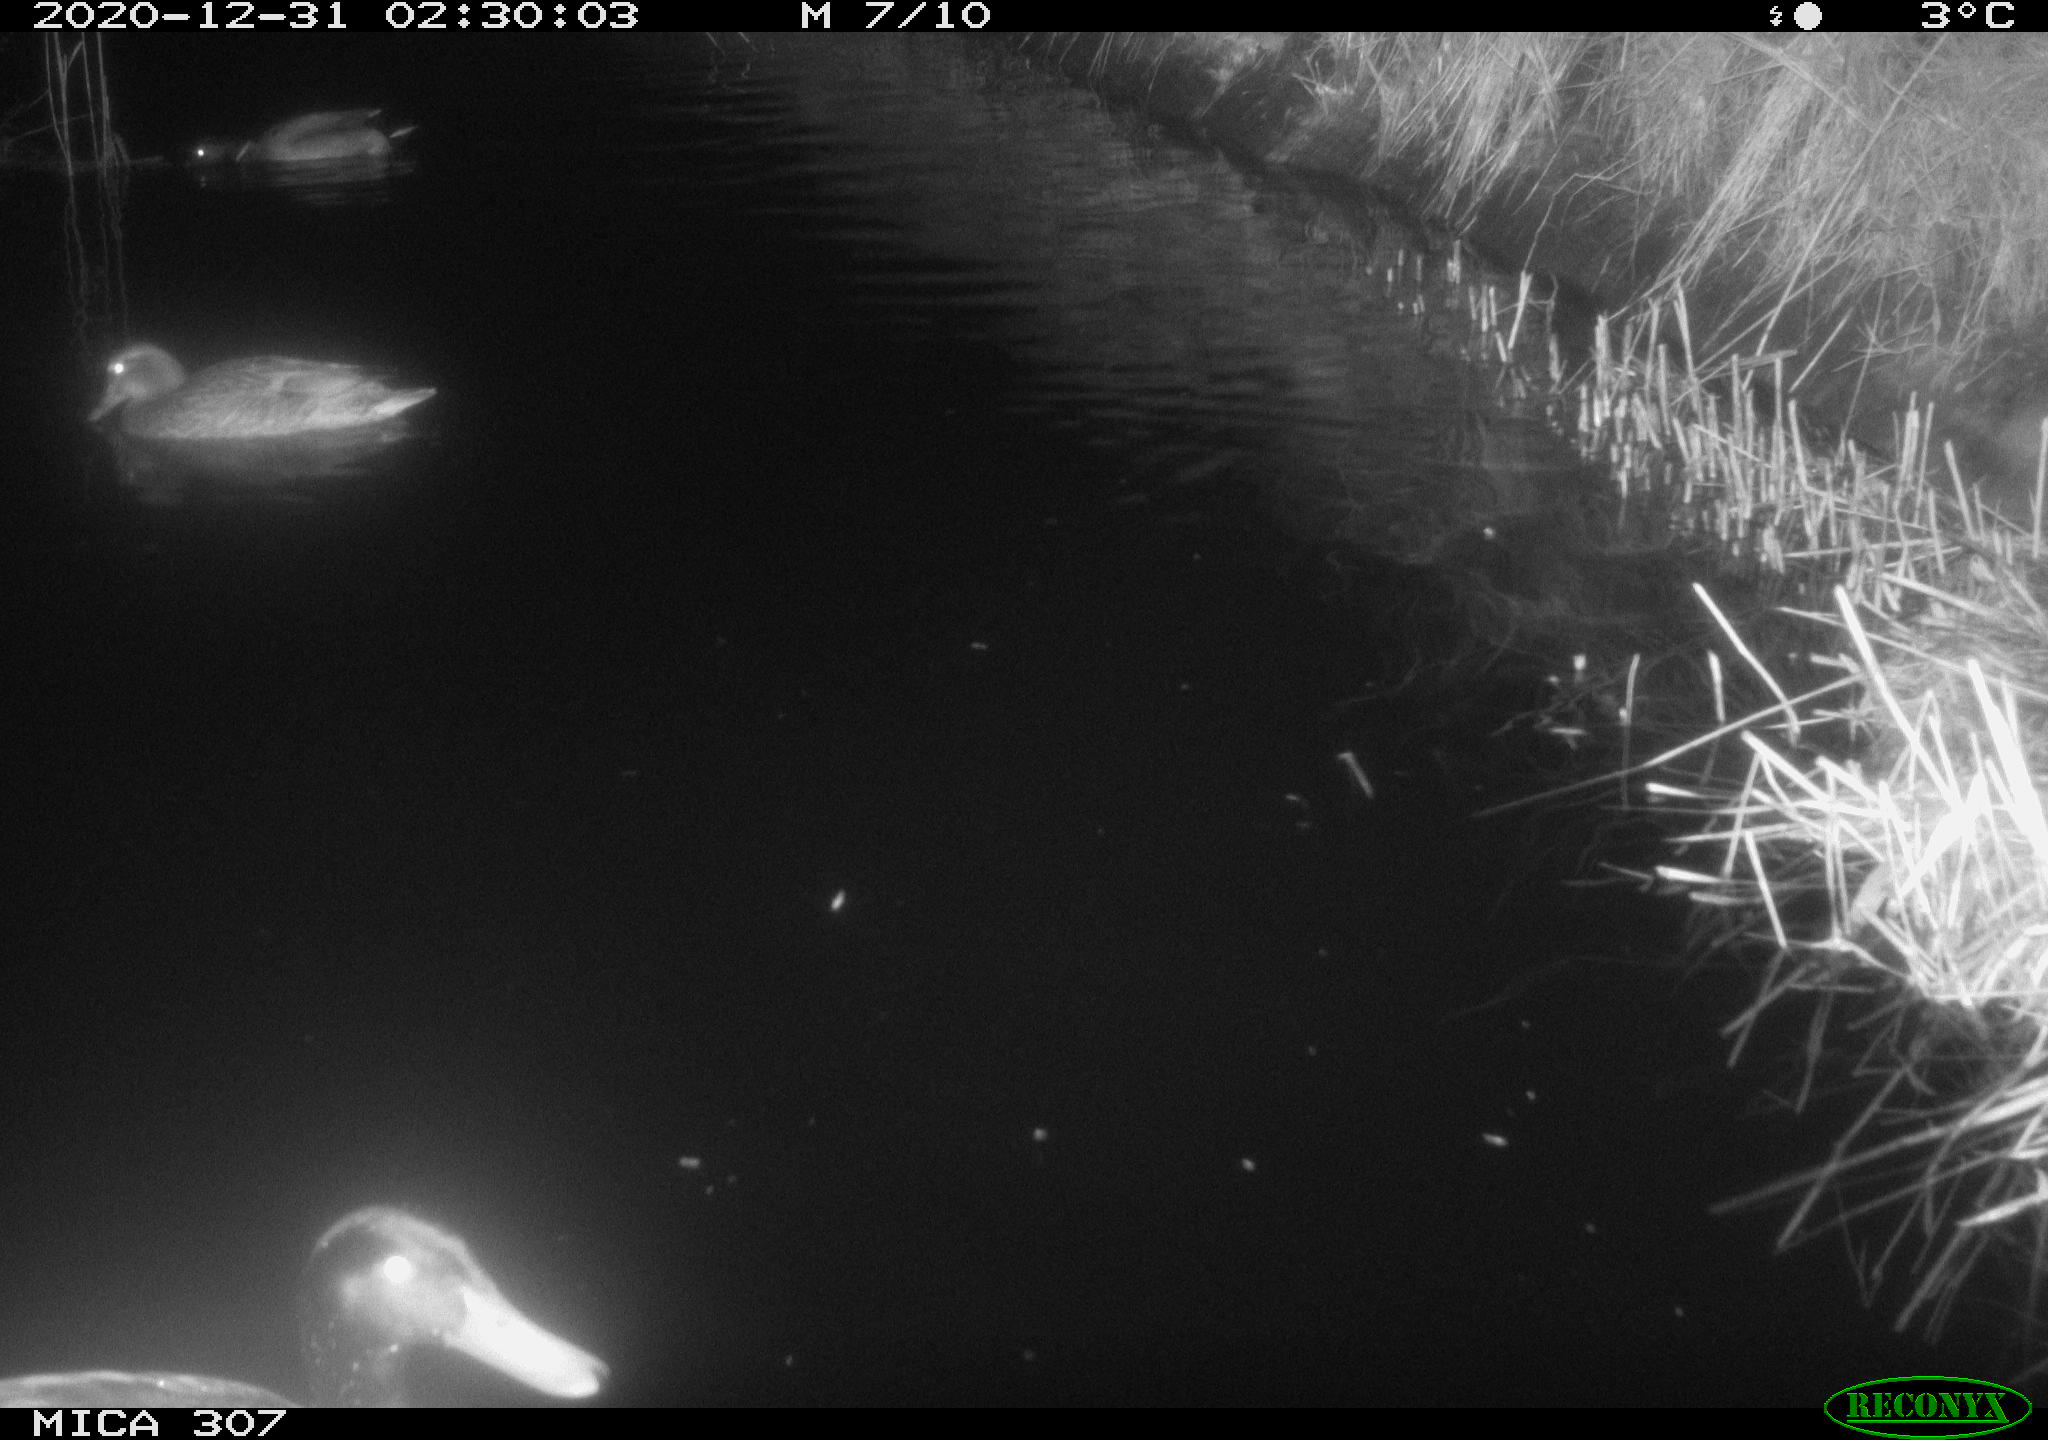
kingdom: Animalia
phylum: Chordata
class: Aves
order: Anseriformes
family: Anatidae
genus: Anas
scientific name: Anas platyrhynchos
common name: Mallard
